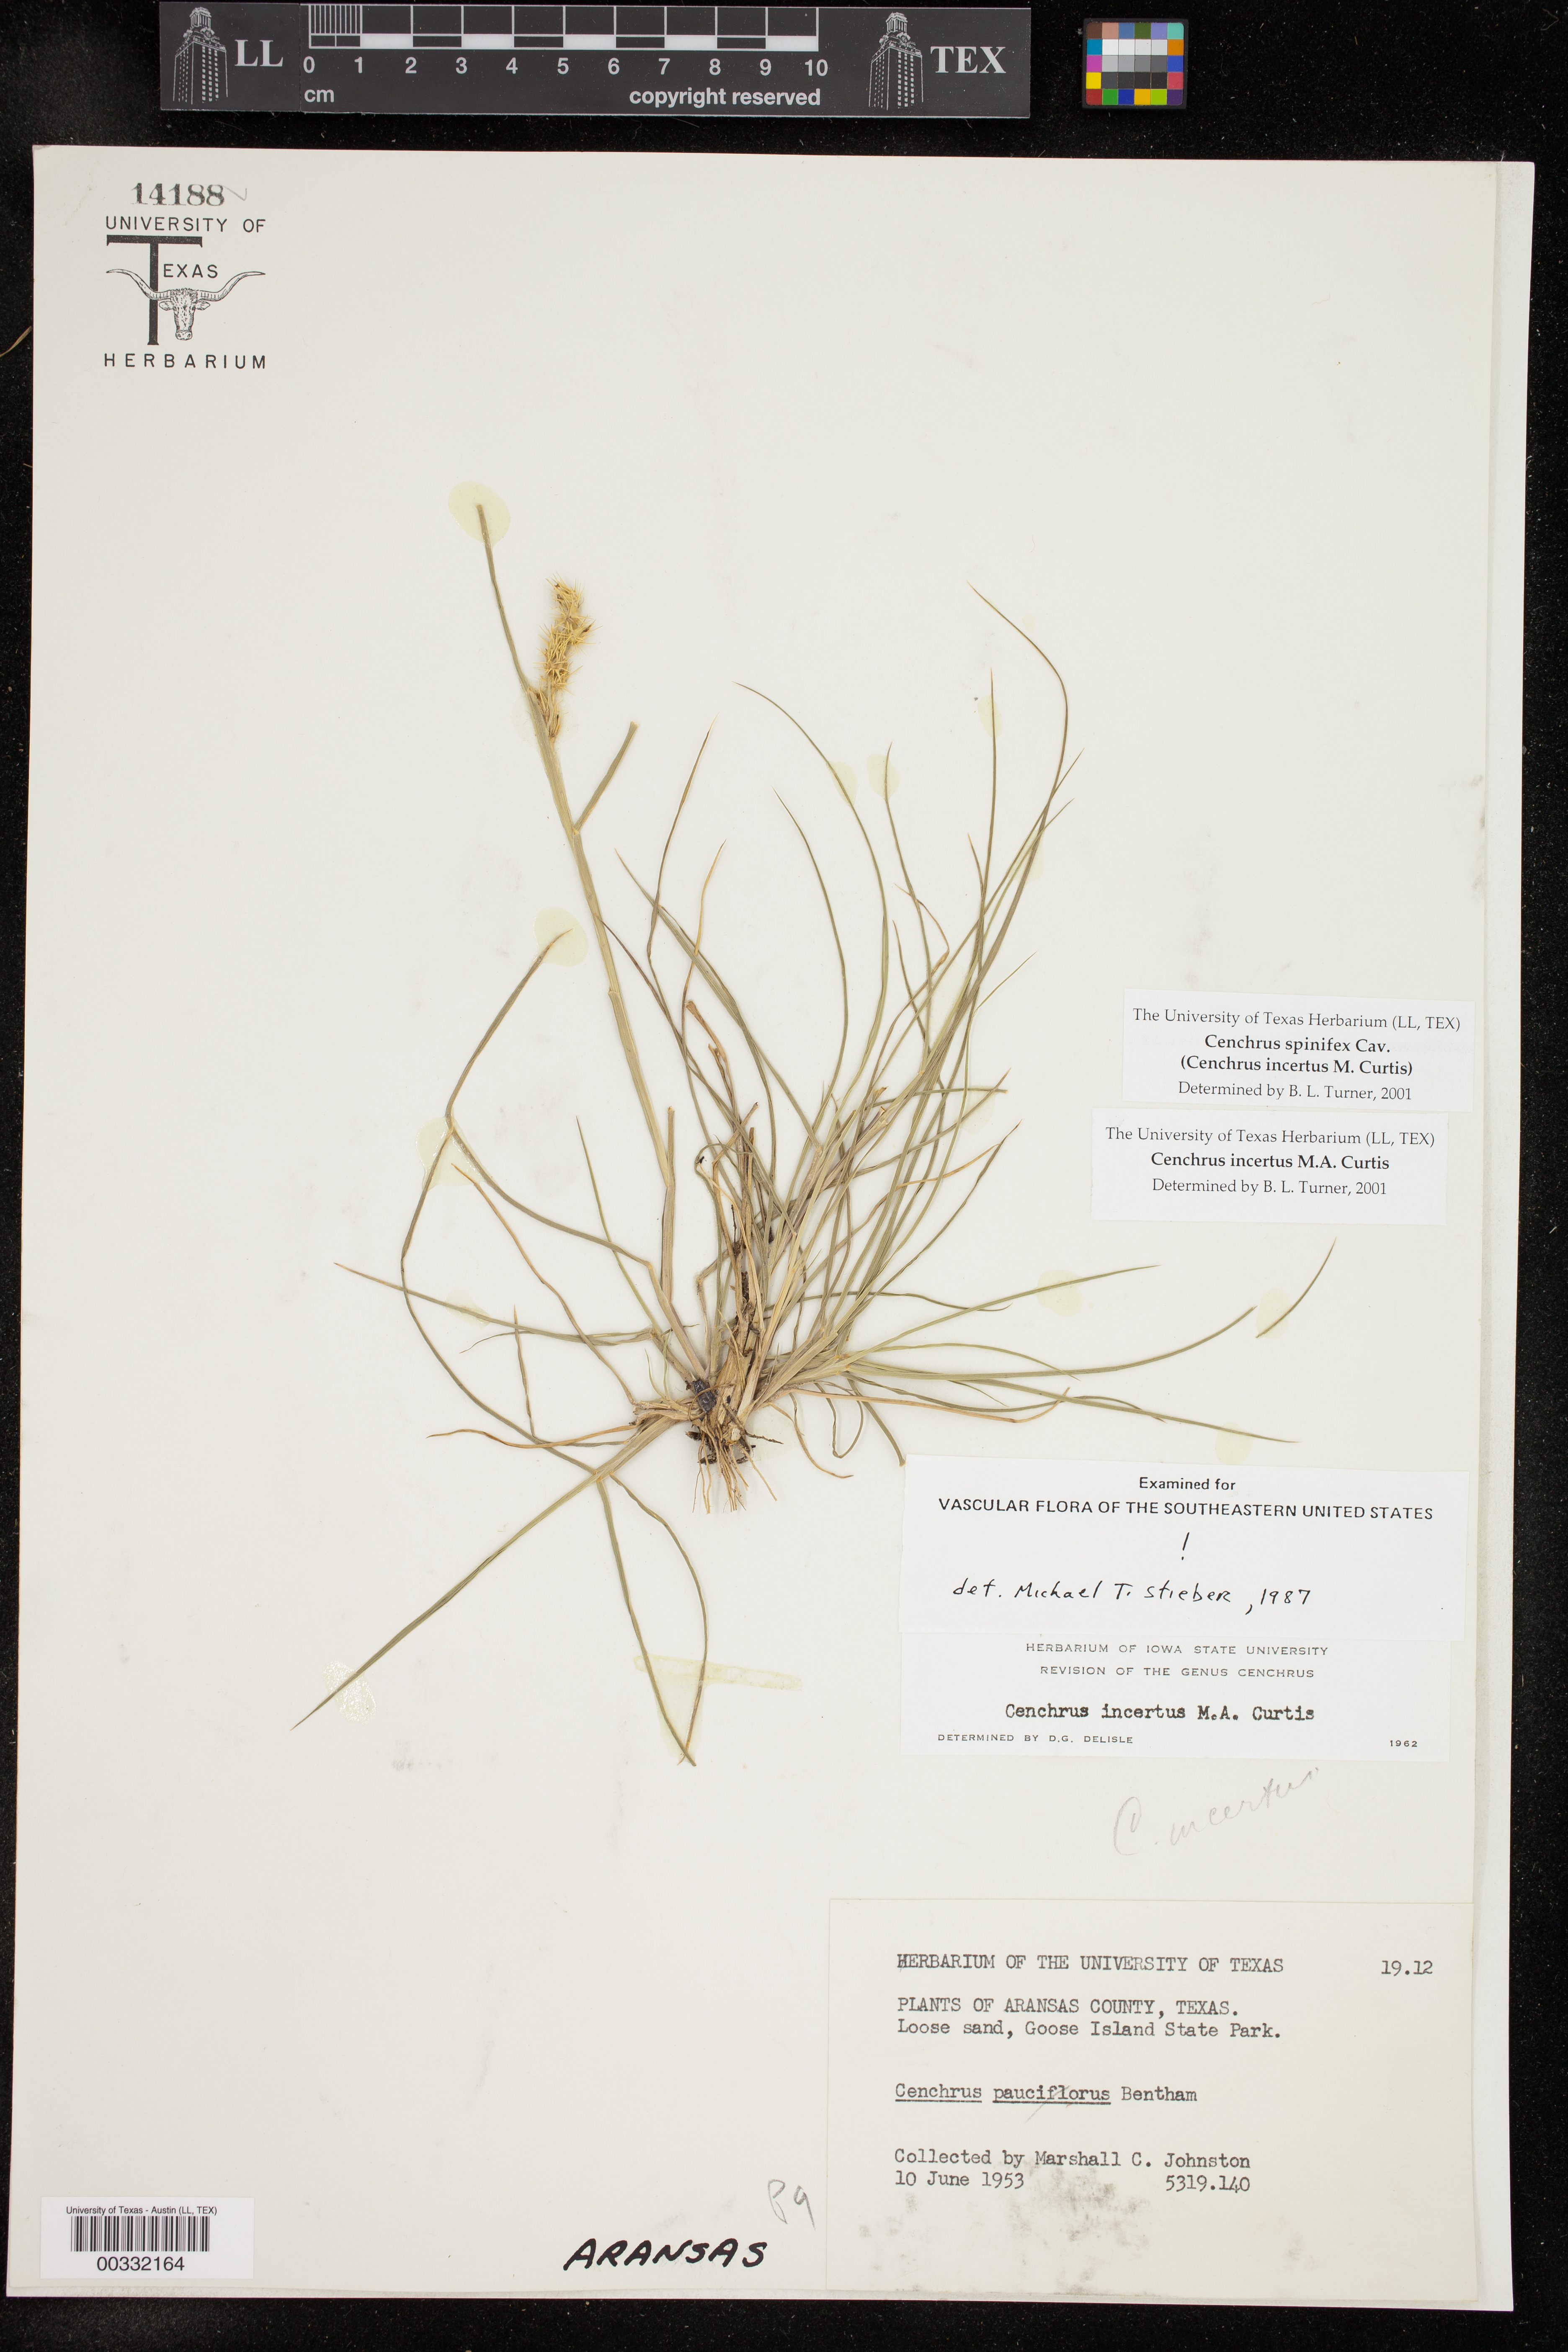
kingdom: Plantae
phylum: Tracheophyta
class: Liliopsida
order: Poales
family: Poaceae
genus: Cenchrus
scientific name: Cenchrus spinifex
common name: Coast sandbur
